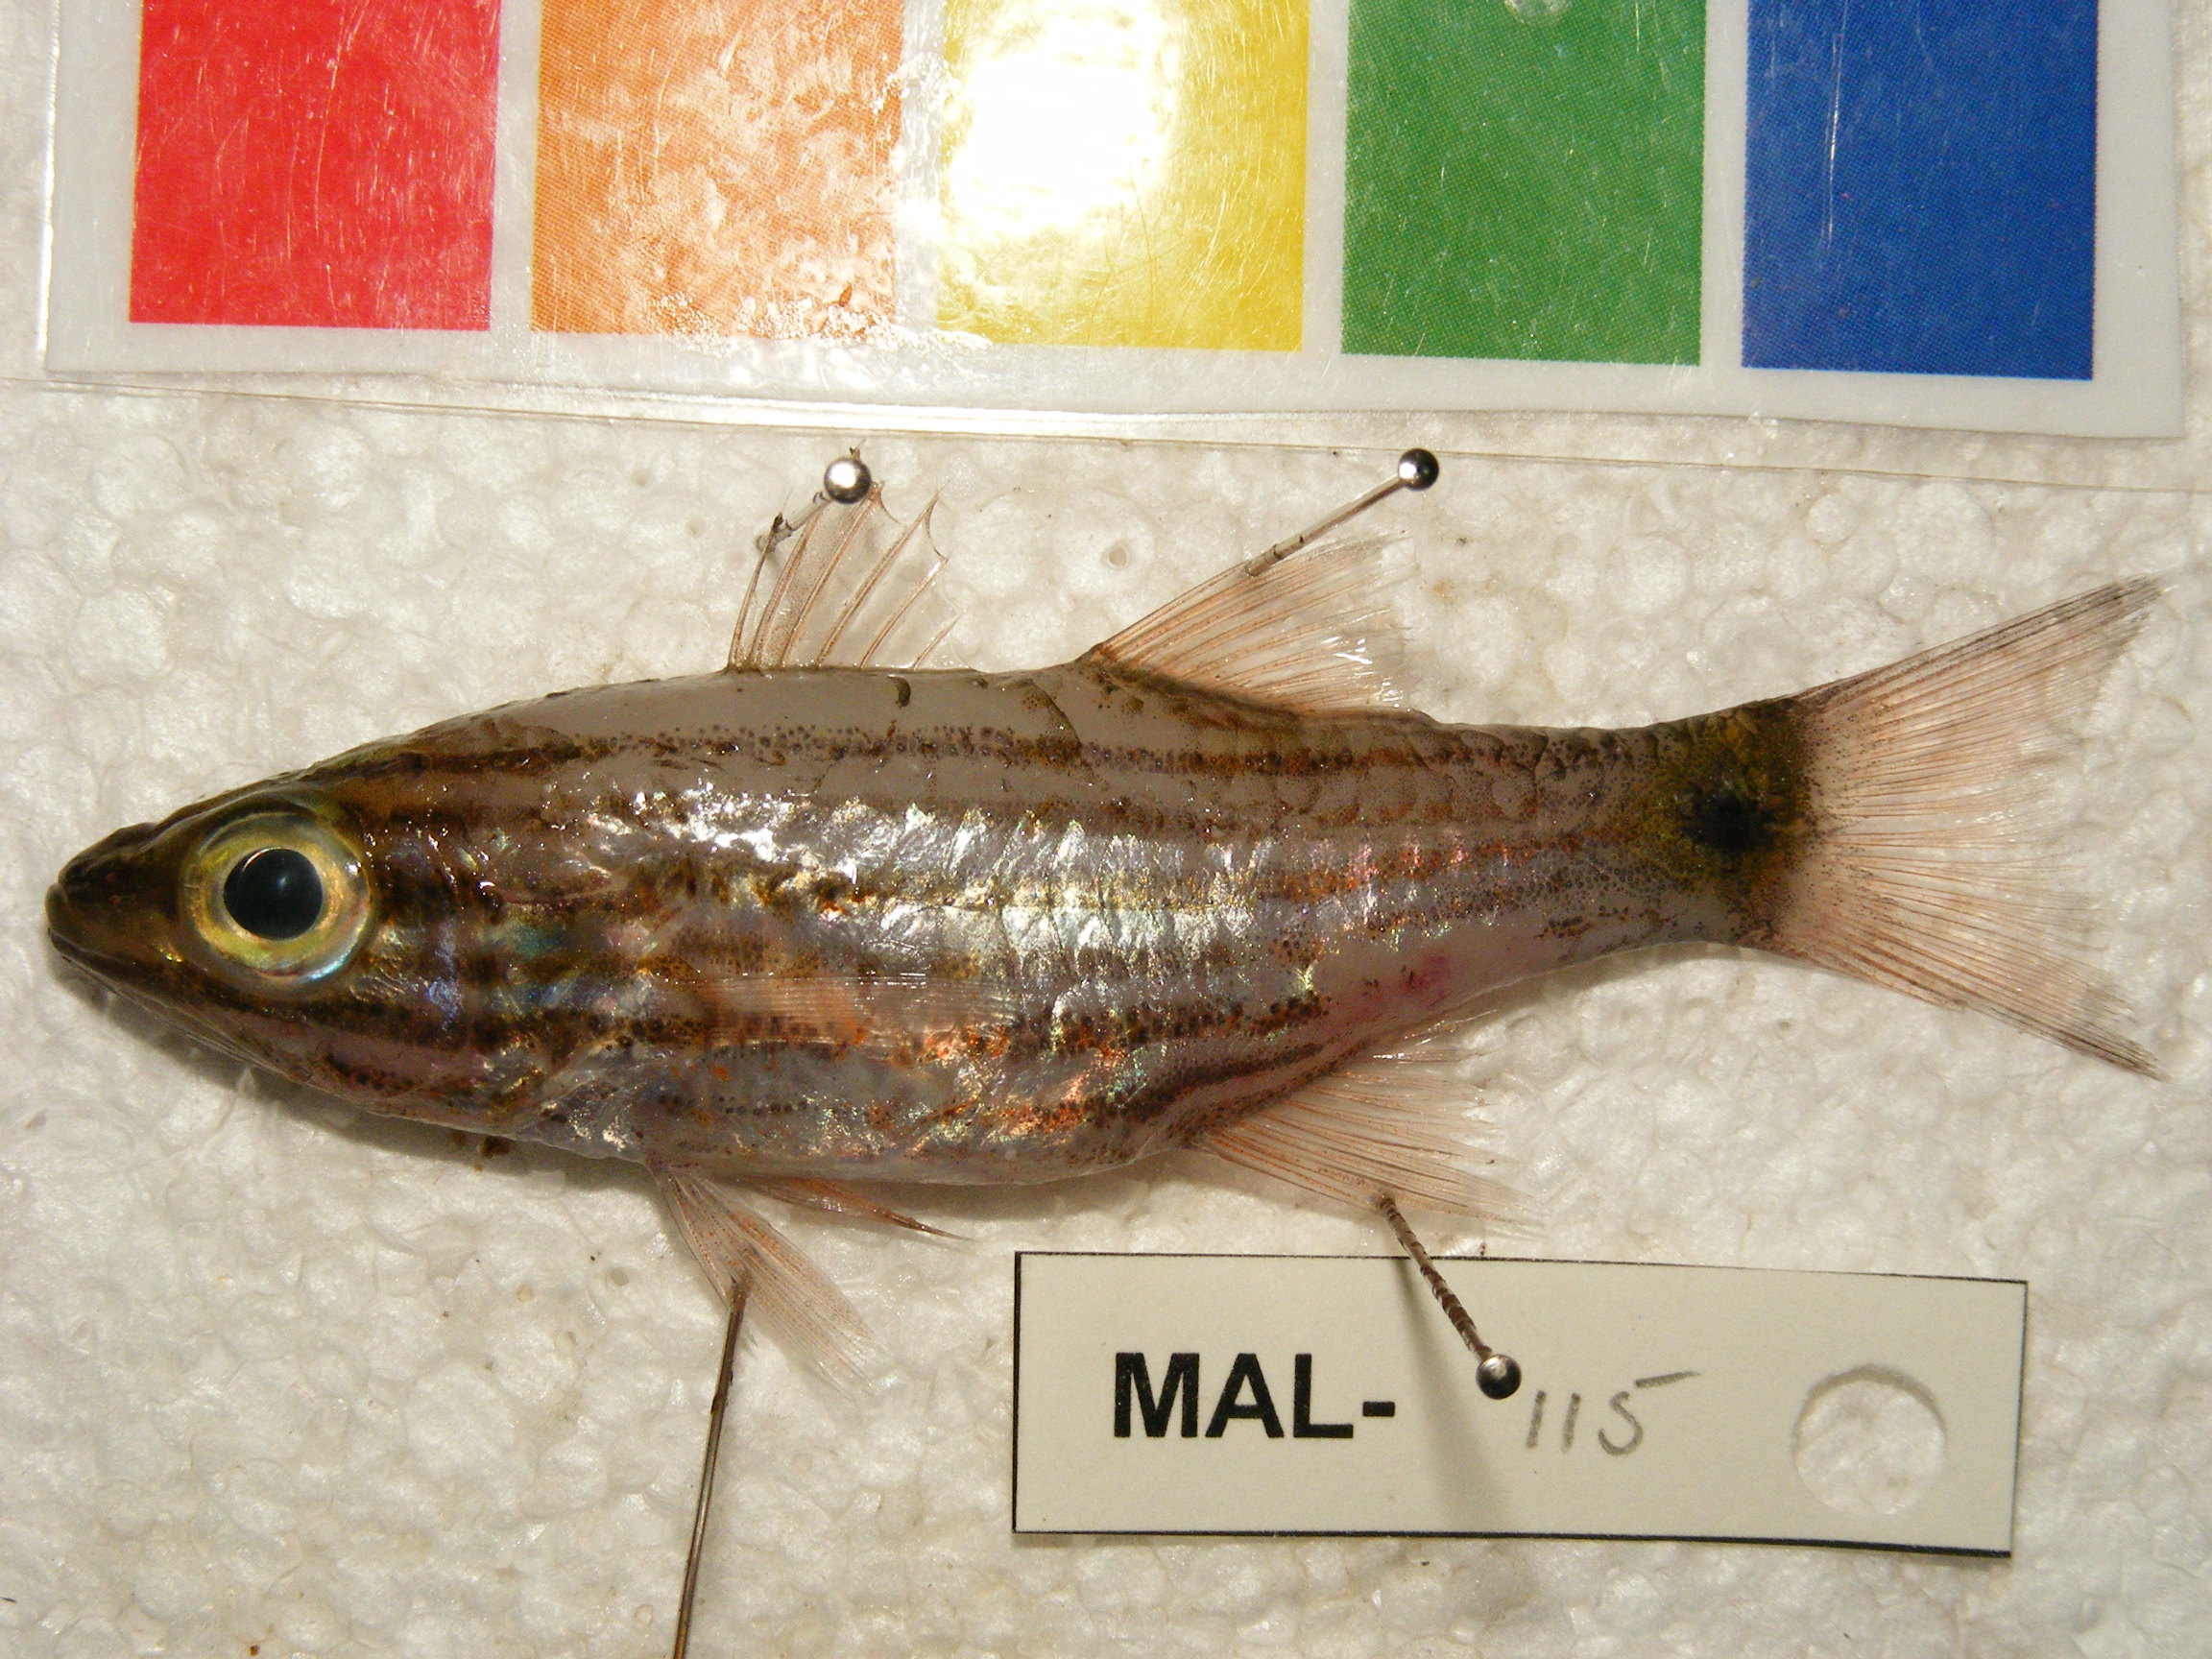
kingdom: Animalia
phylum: Chordata
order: Perciformes
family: Apogonidae
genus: Cheilodipterus
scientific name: Cheilodipterus artus
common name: Wolf cardinal
